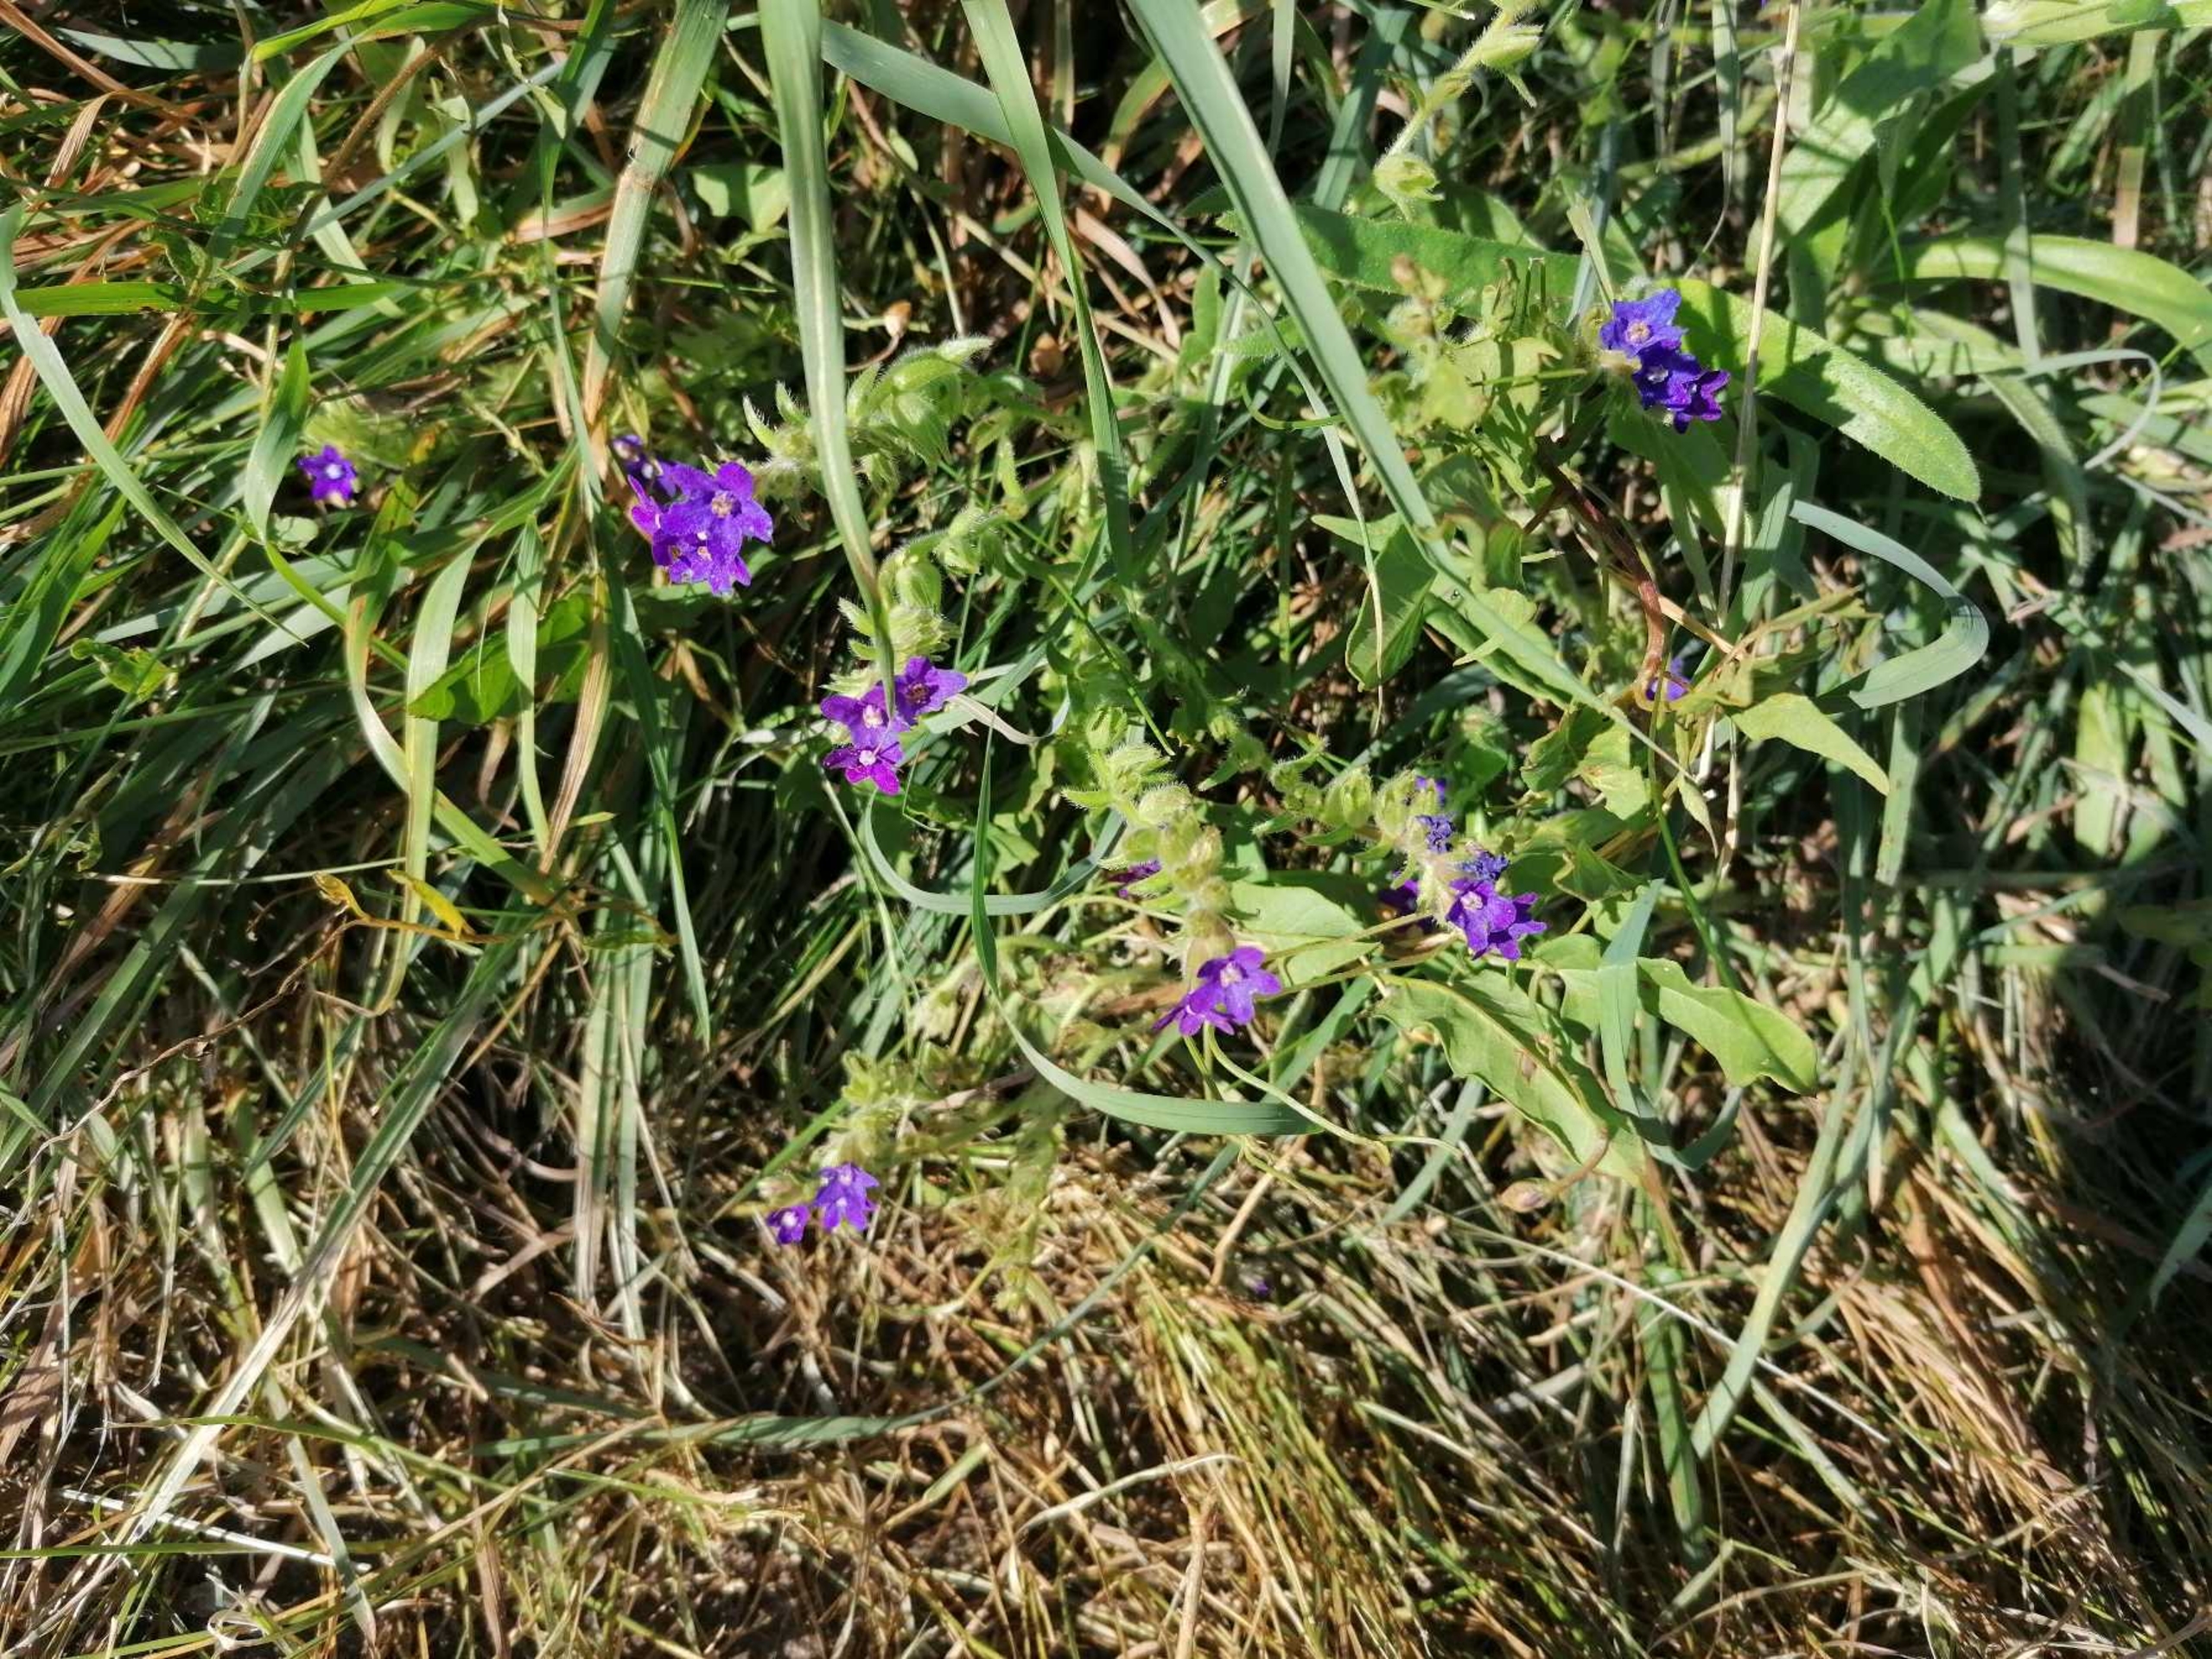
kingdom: Plantae
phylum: Tracheophyta
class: Magnoliopsida
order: Boraginales
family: Boraginaceae
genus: Anchusa
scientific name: Anchusa officinalis
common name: Læge-oksetunge
